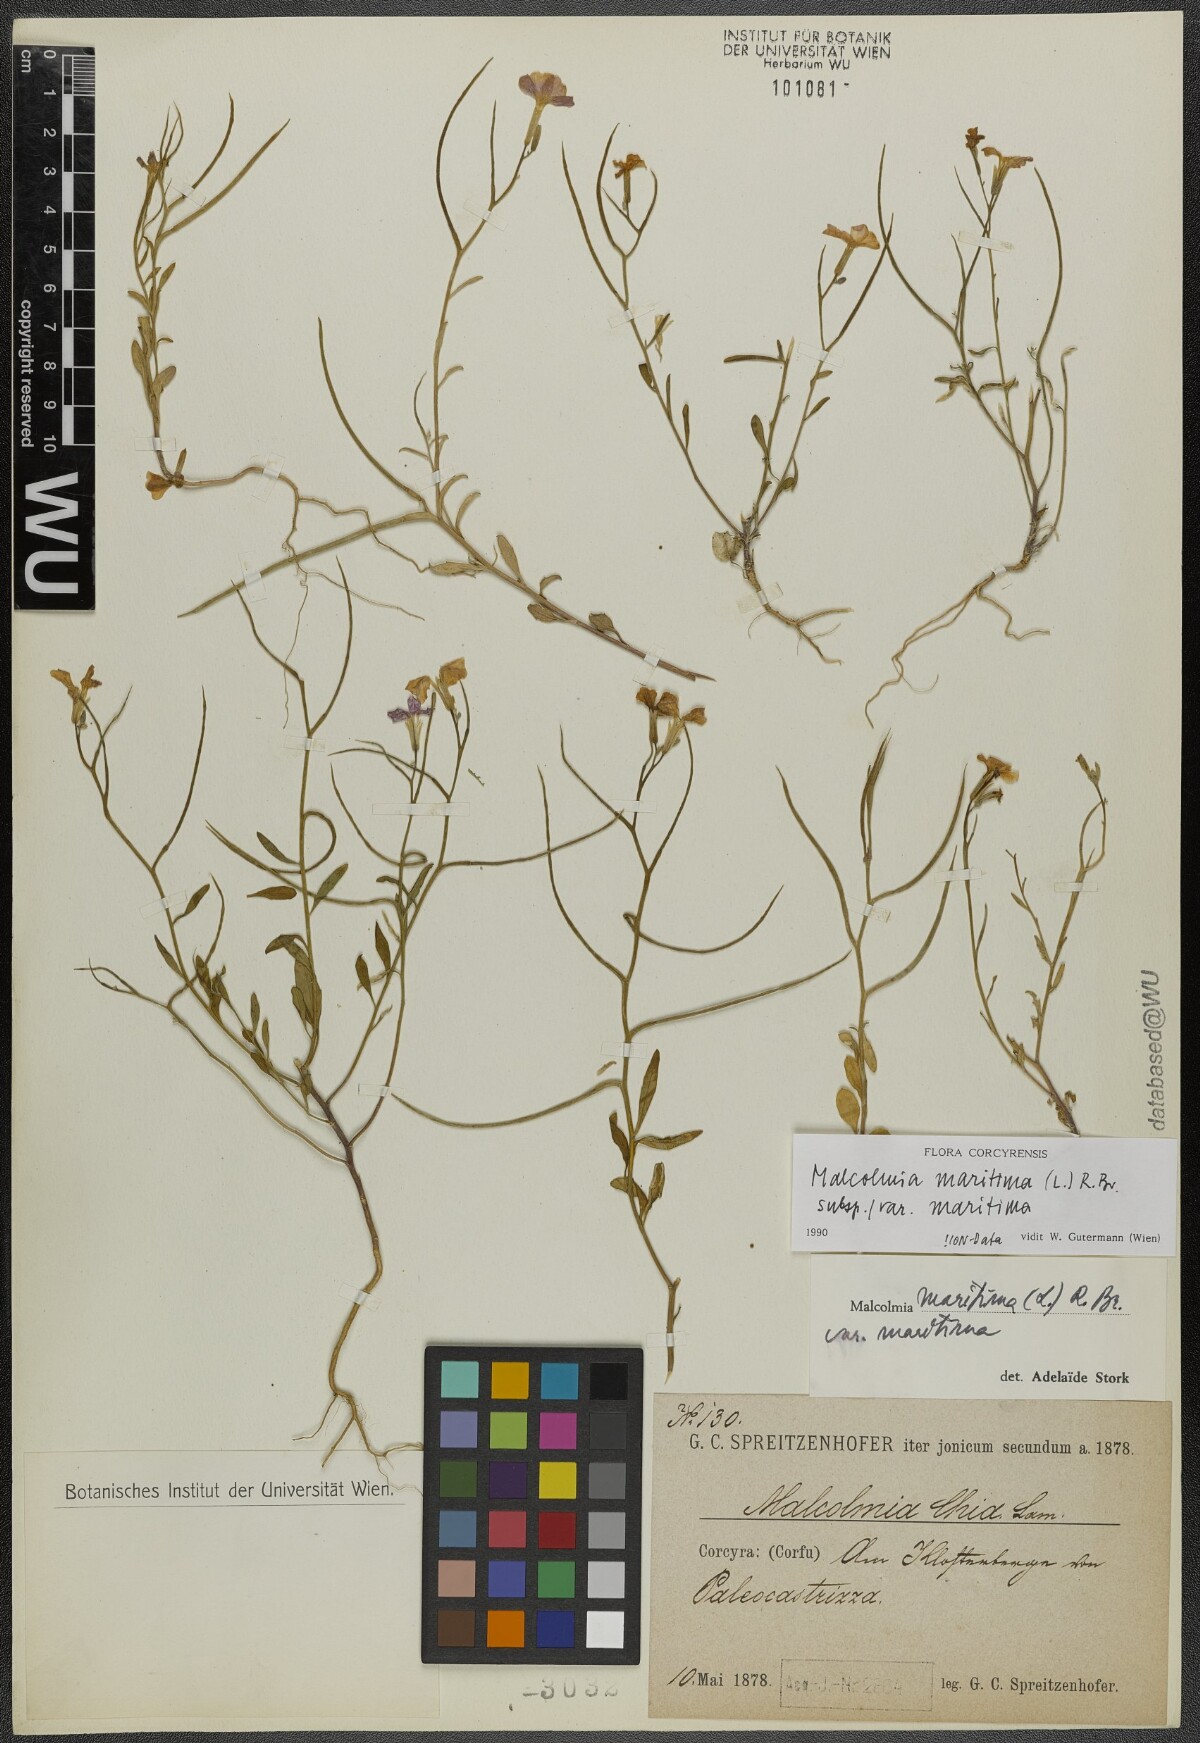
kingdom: Plantae
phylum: Tracheophyta
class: Magnoliopsida
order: Brassicales
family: Brassicaceae
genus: Malcolmia
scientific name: Malcolmia maritima
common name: Virginia stock
